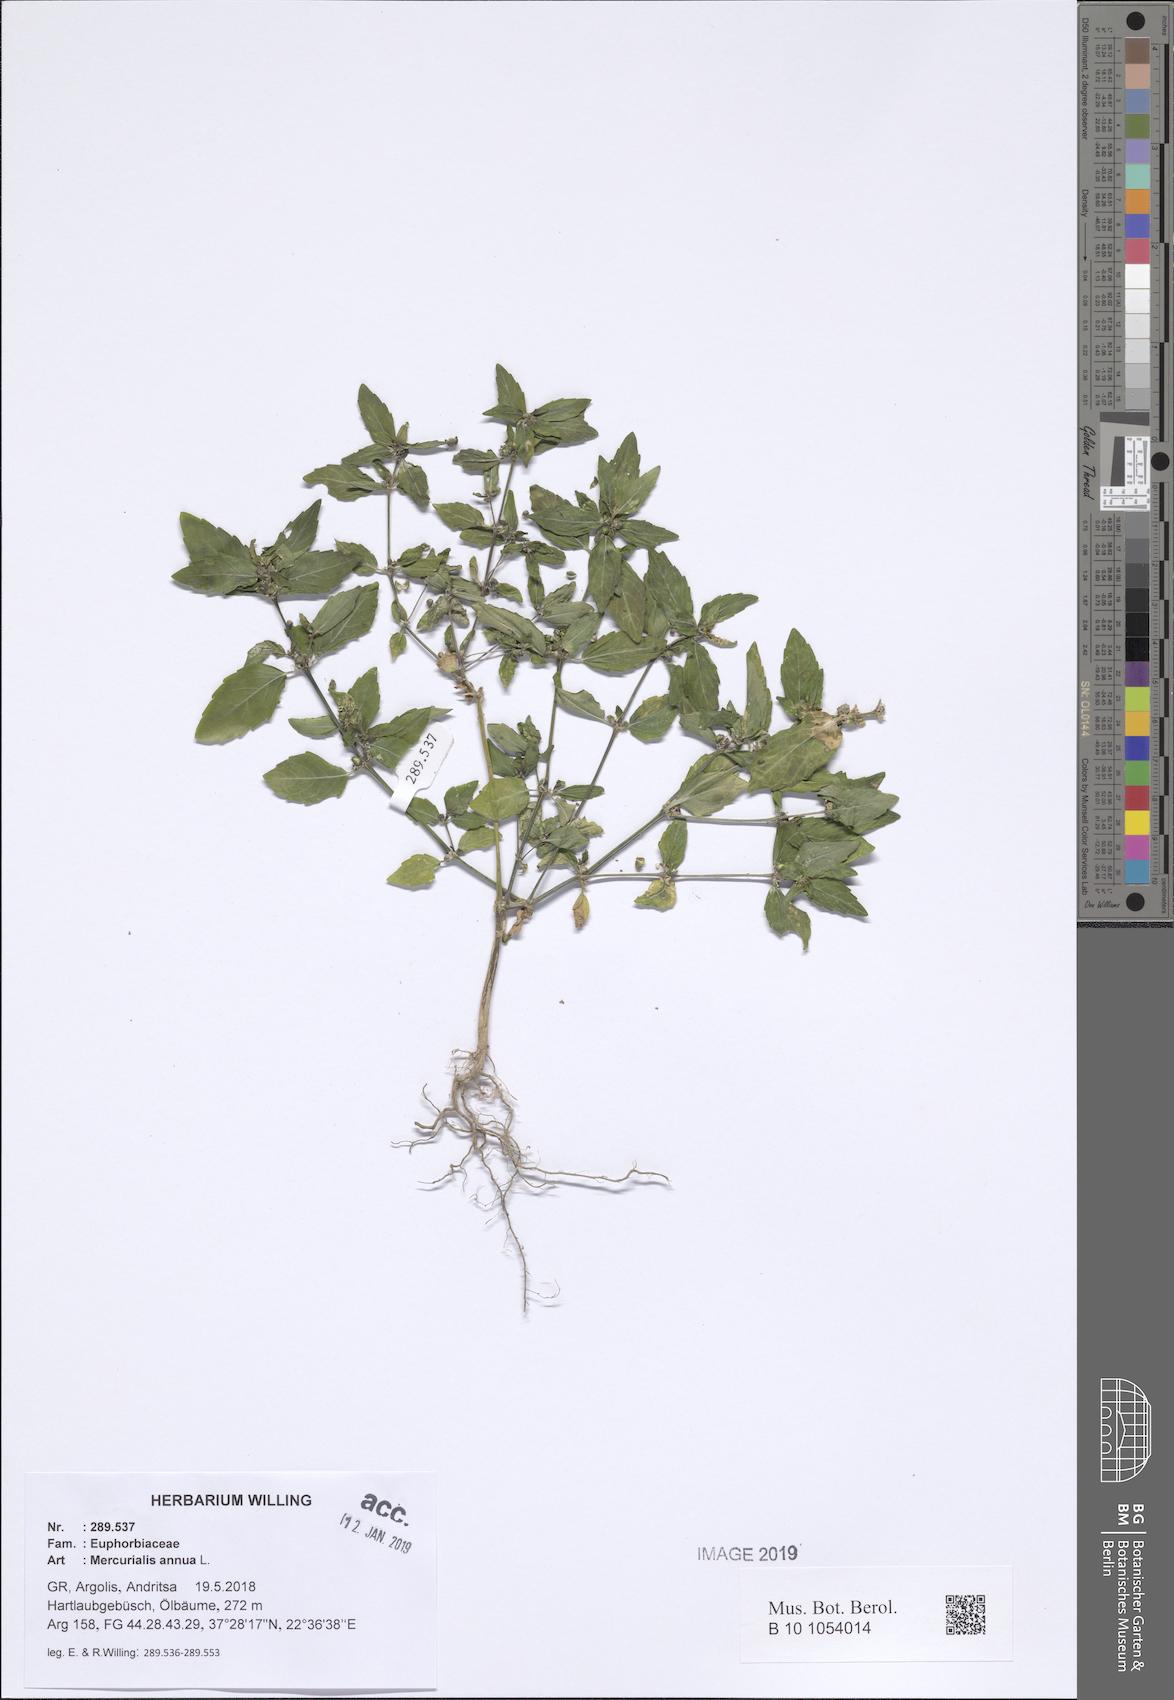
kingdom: Plantae
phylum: Tracheophyta
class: Magnoliopsida
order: Malpighiales
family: Euphorbiaceae
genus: Mercurialis
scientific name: Mercurialis annua
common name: Annual mercury
